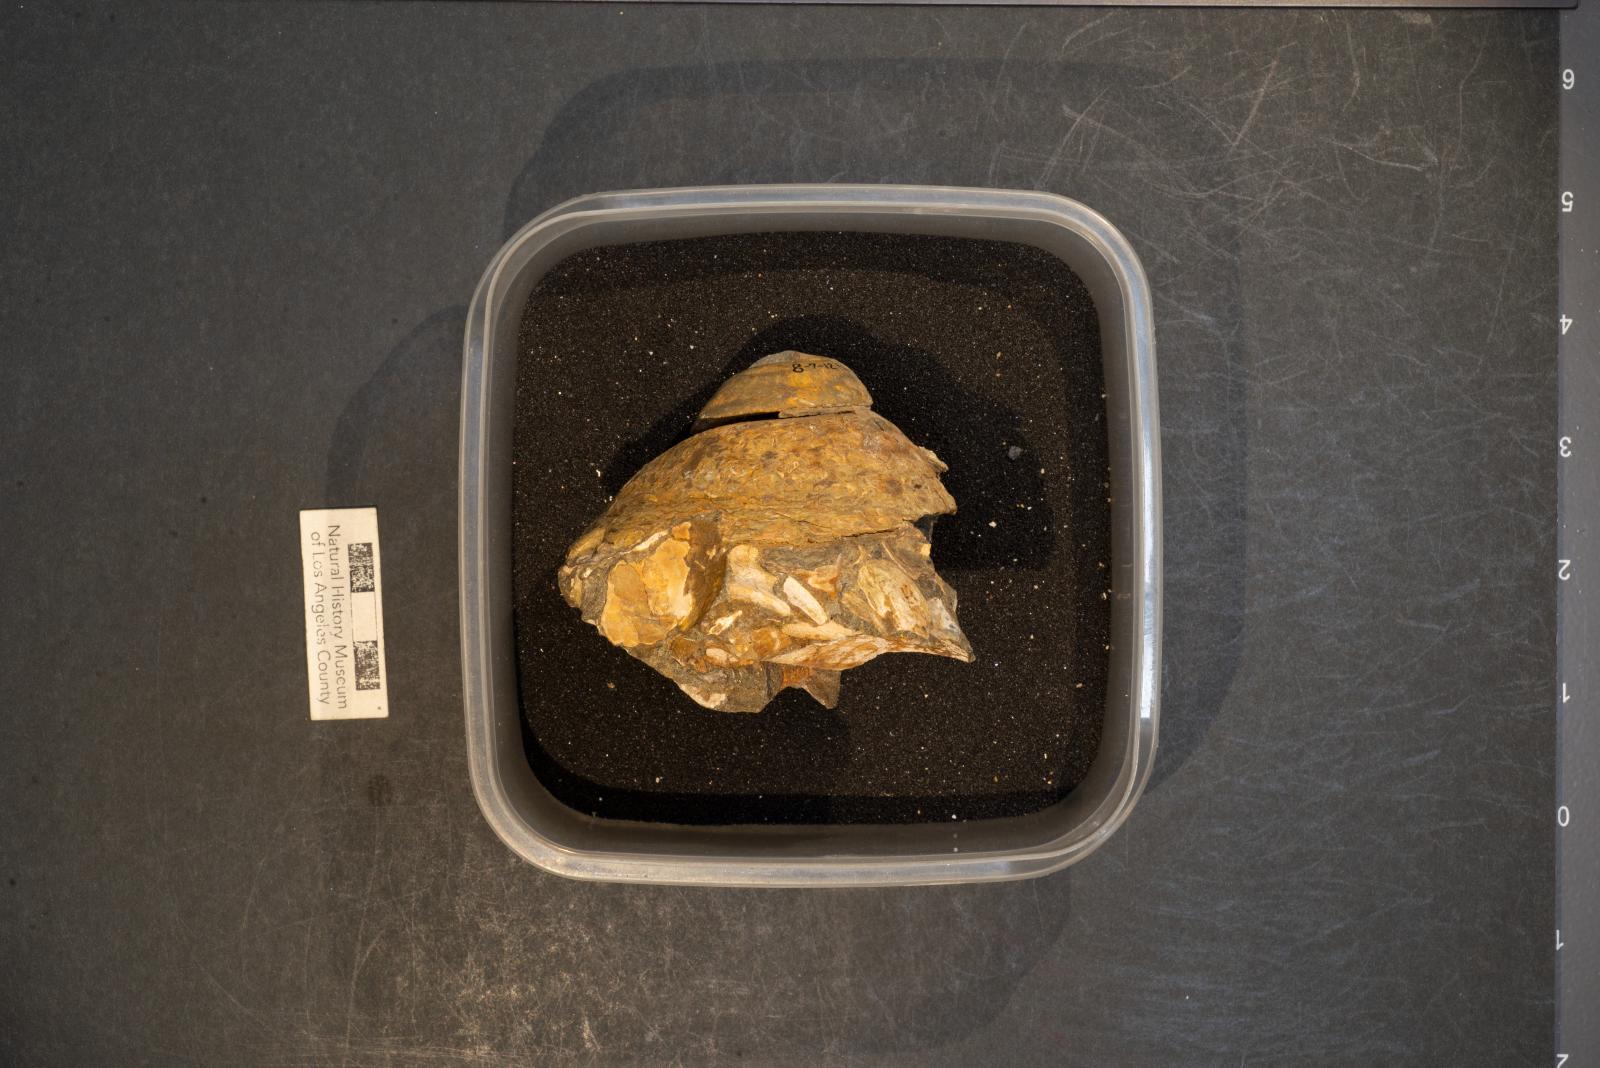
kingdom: Animalia
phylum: Mollusca
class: Gastropoda
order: Littorinimorpha
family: Xenophoridae
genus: Xenophora
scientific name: Xenophora hermax
